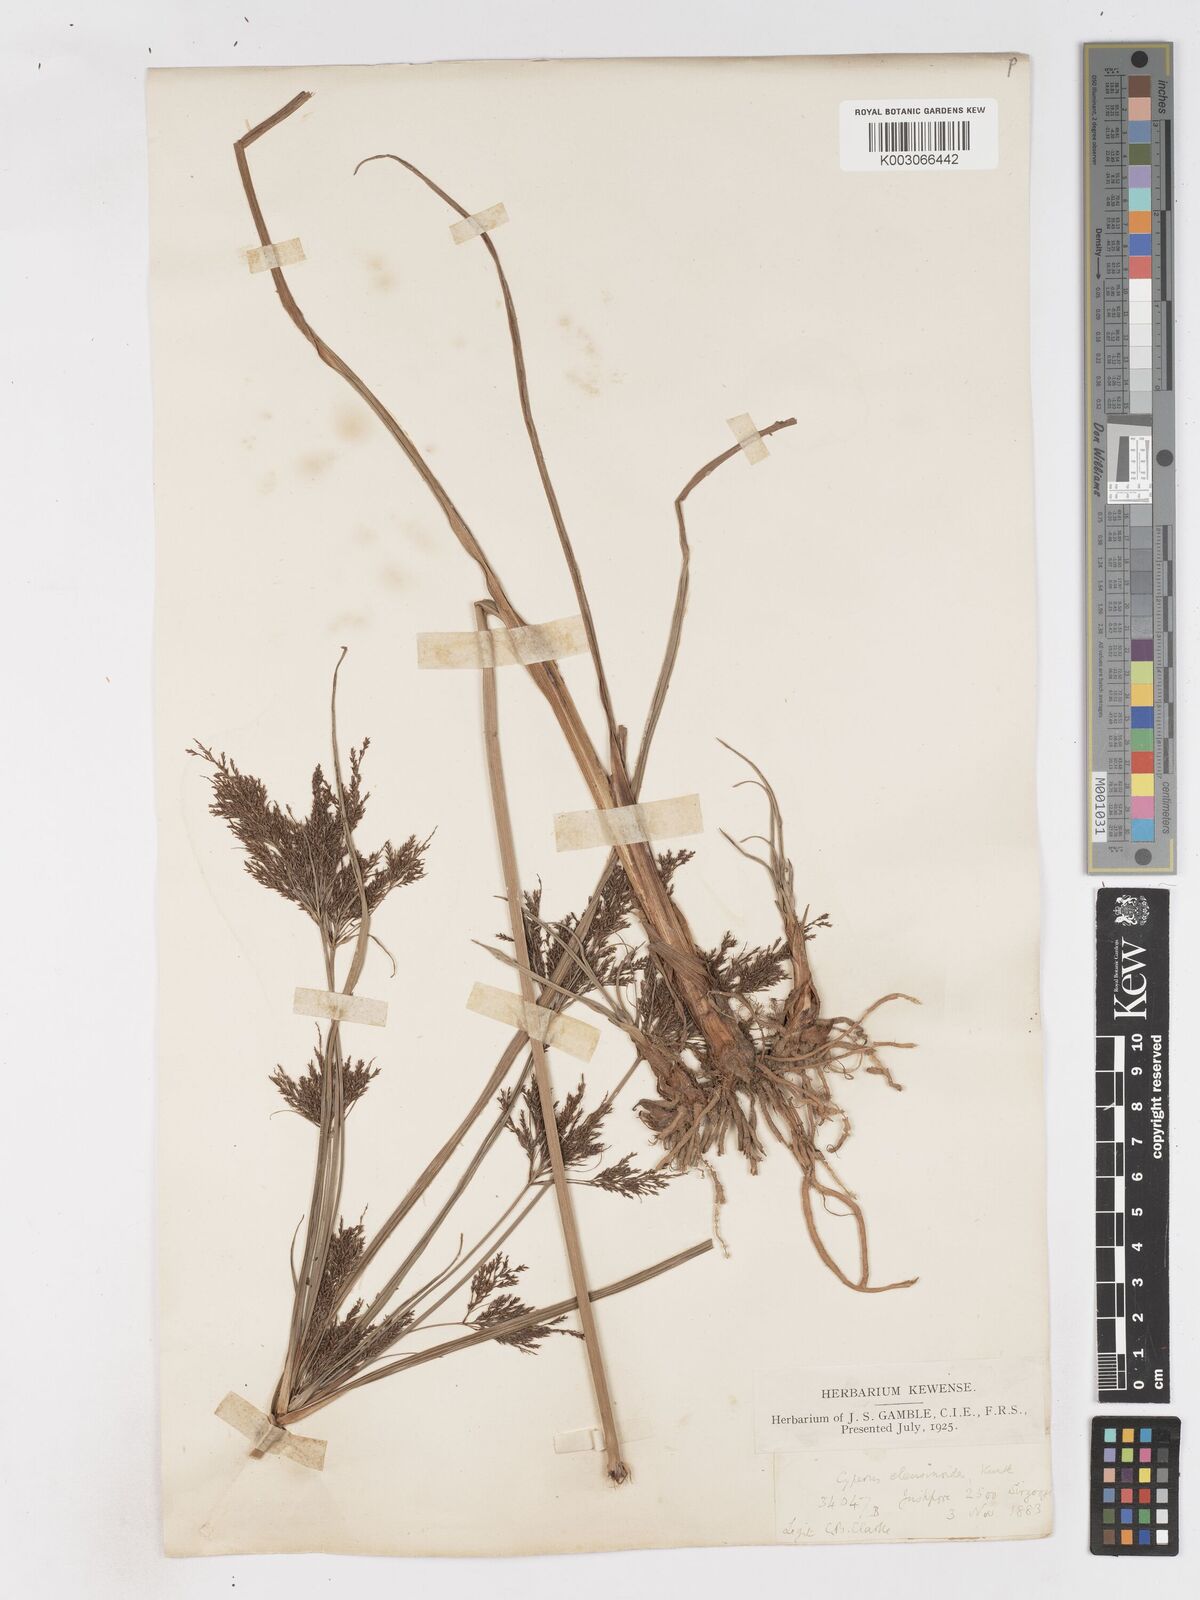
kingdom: Plantae
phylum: Tracheophyta
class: Liliopsida
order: Poales
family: Cyperaceae
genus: Cyperus
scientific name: Cyperus nutans
